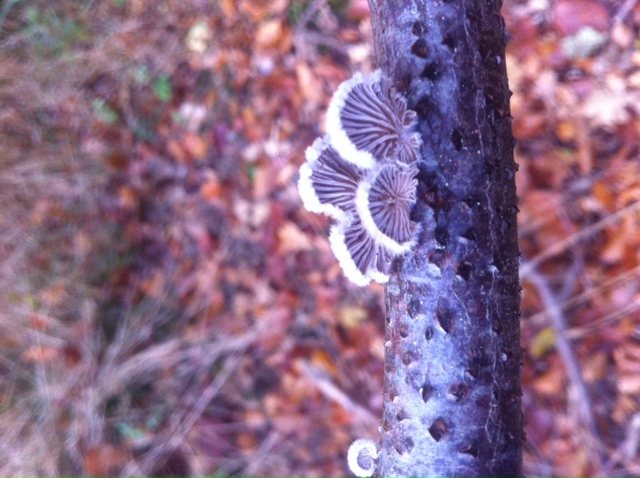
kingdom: Fungi
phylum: Basidiomycota
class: Agaricomycetes
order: Agaricales
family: Schizophyllaceae
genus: Schizophyllum
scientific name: Schizophyllum commune
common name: kløvblad
